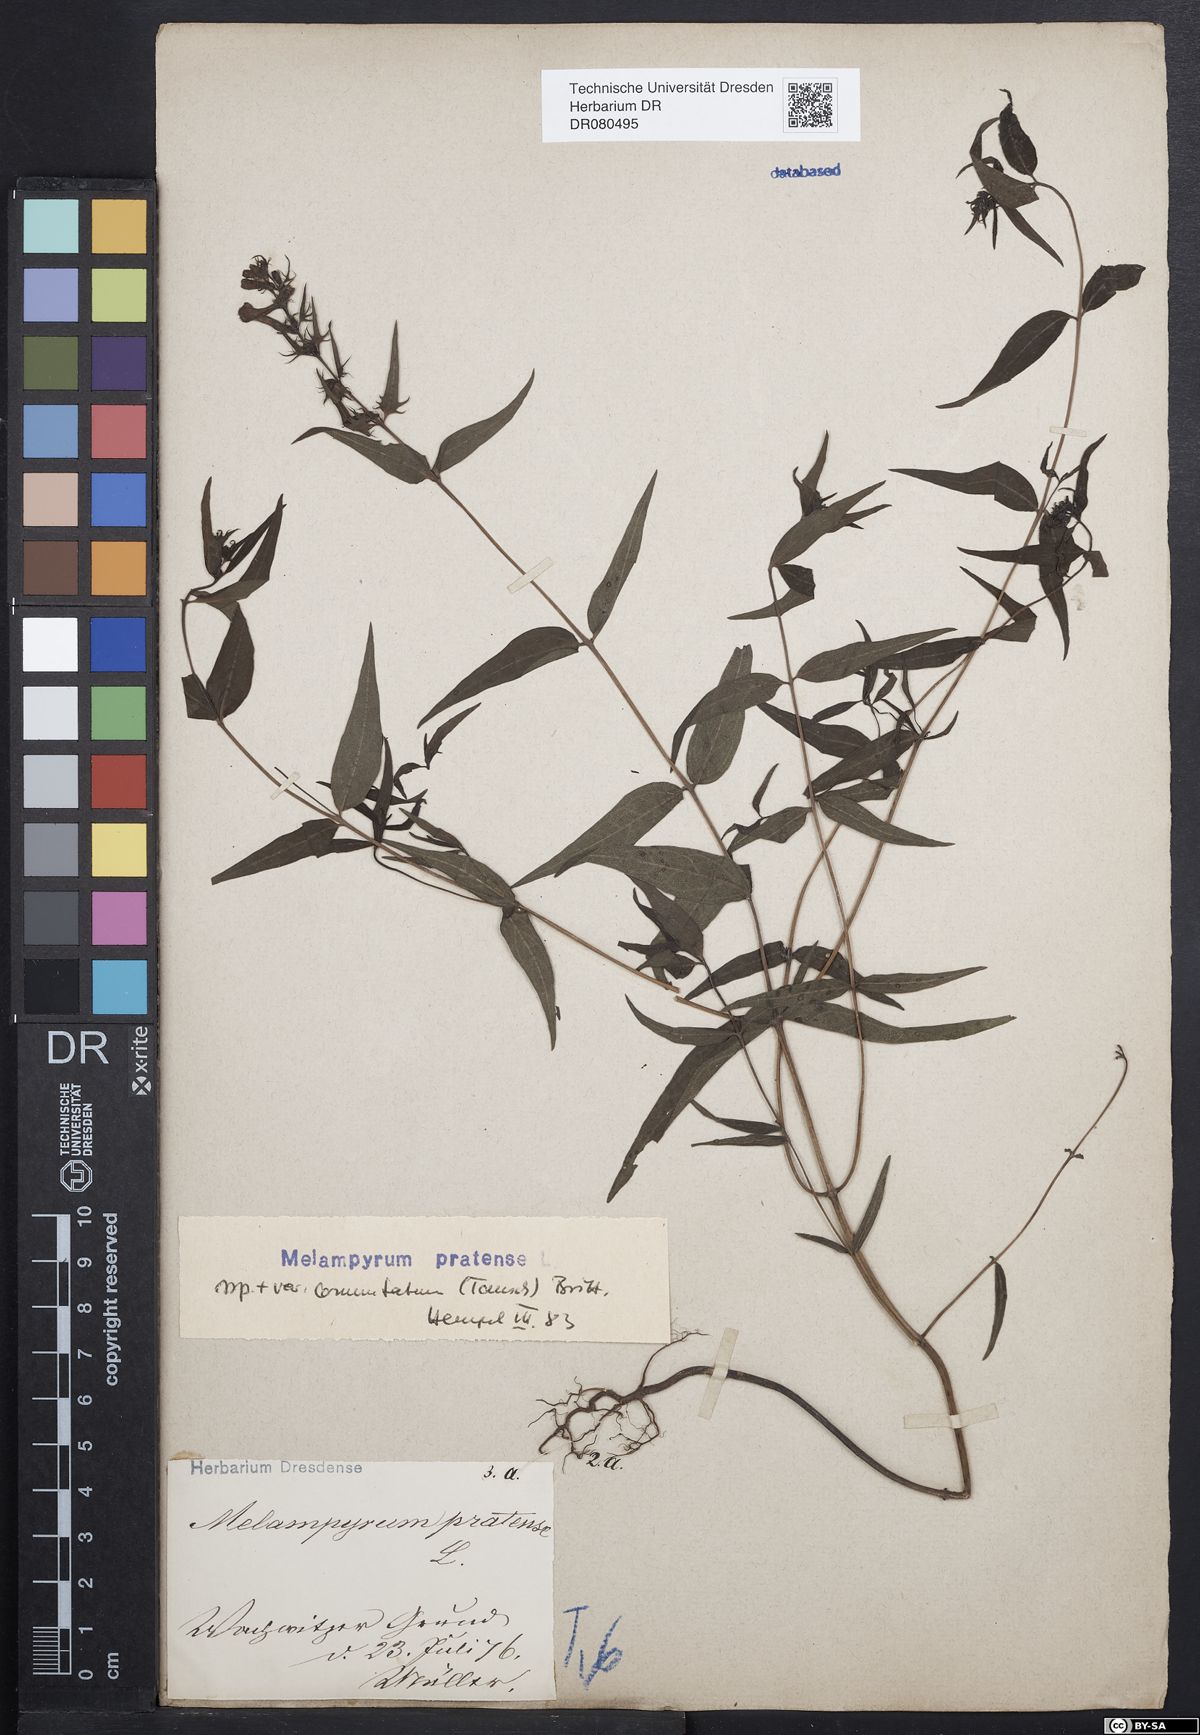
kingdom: Plantae
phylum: Tracheophyta
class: Magnoliopsida
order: Lamiales
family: Orobanchaceae
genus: Melampyrum
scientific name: Melampyrum pratense
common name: Common cow-wheat
